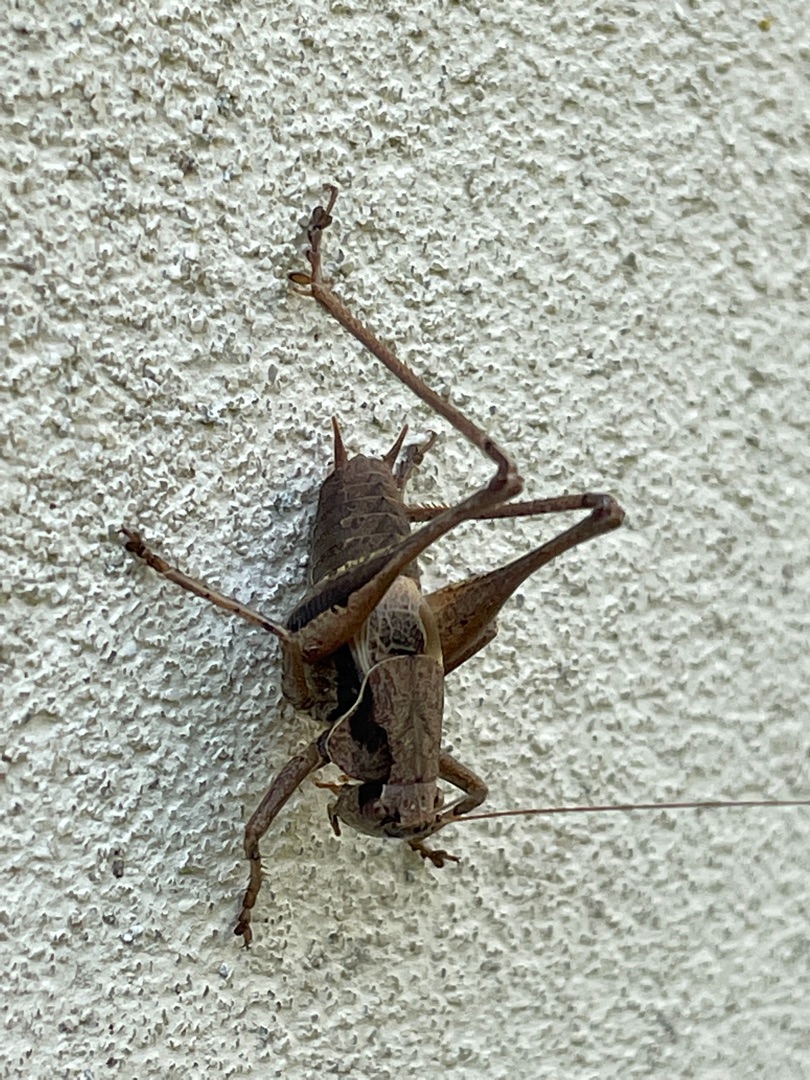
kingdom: Animalia
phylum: Arthropoda
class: Insecta
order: Orthoptera
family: Tettigoniidae
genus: Pholidoptera
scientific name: Pholidoptera griseoaptera
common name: Buskgræshoppe
